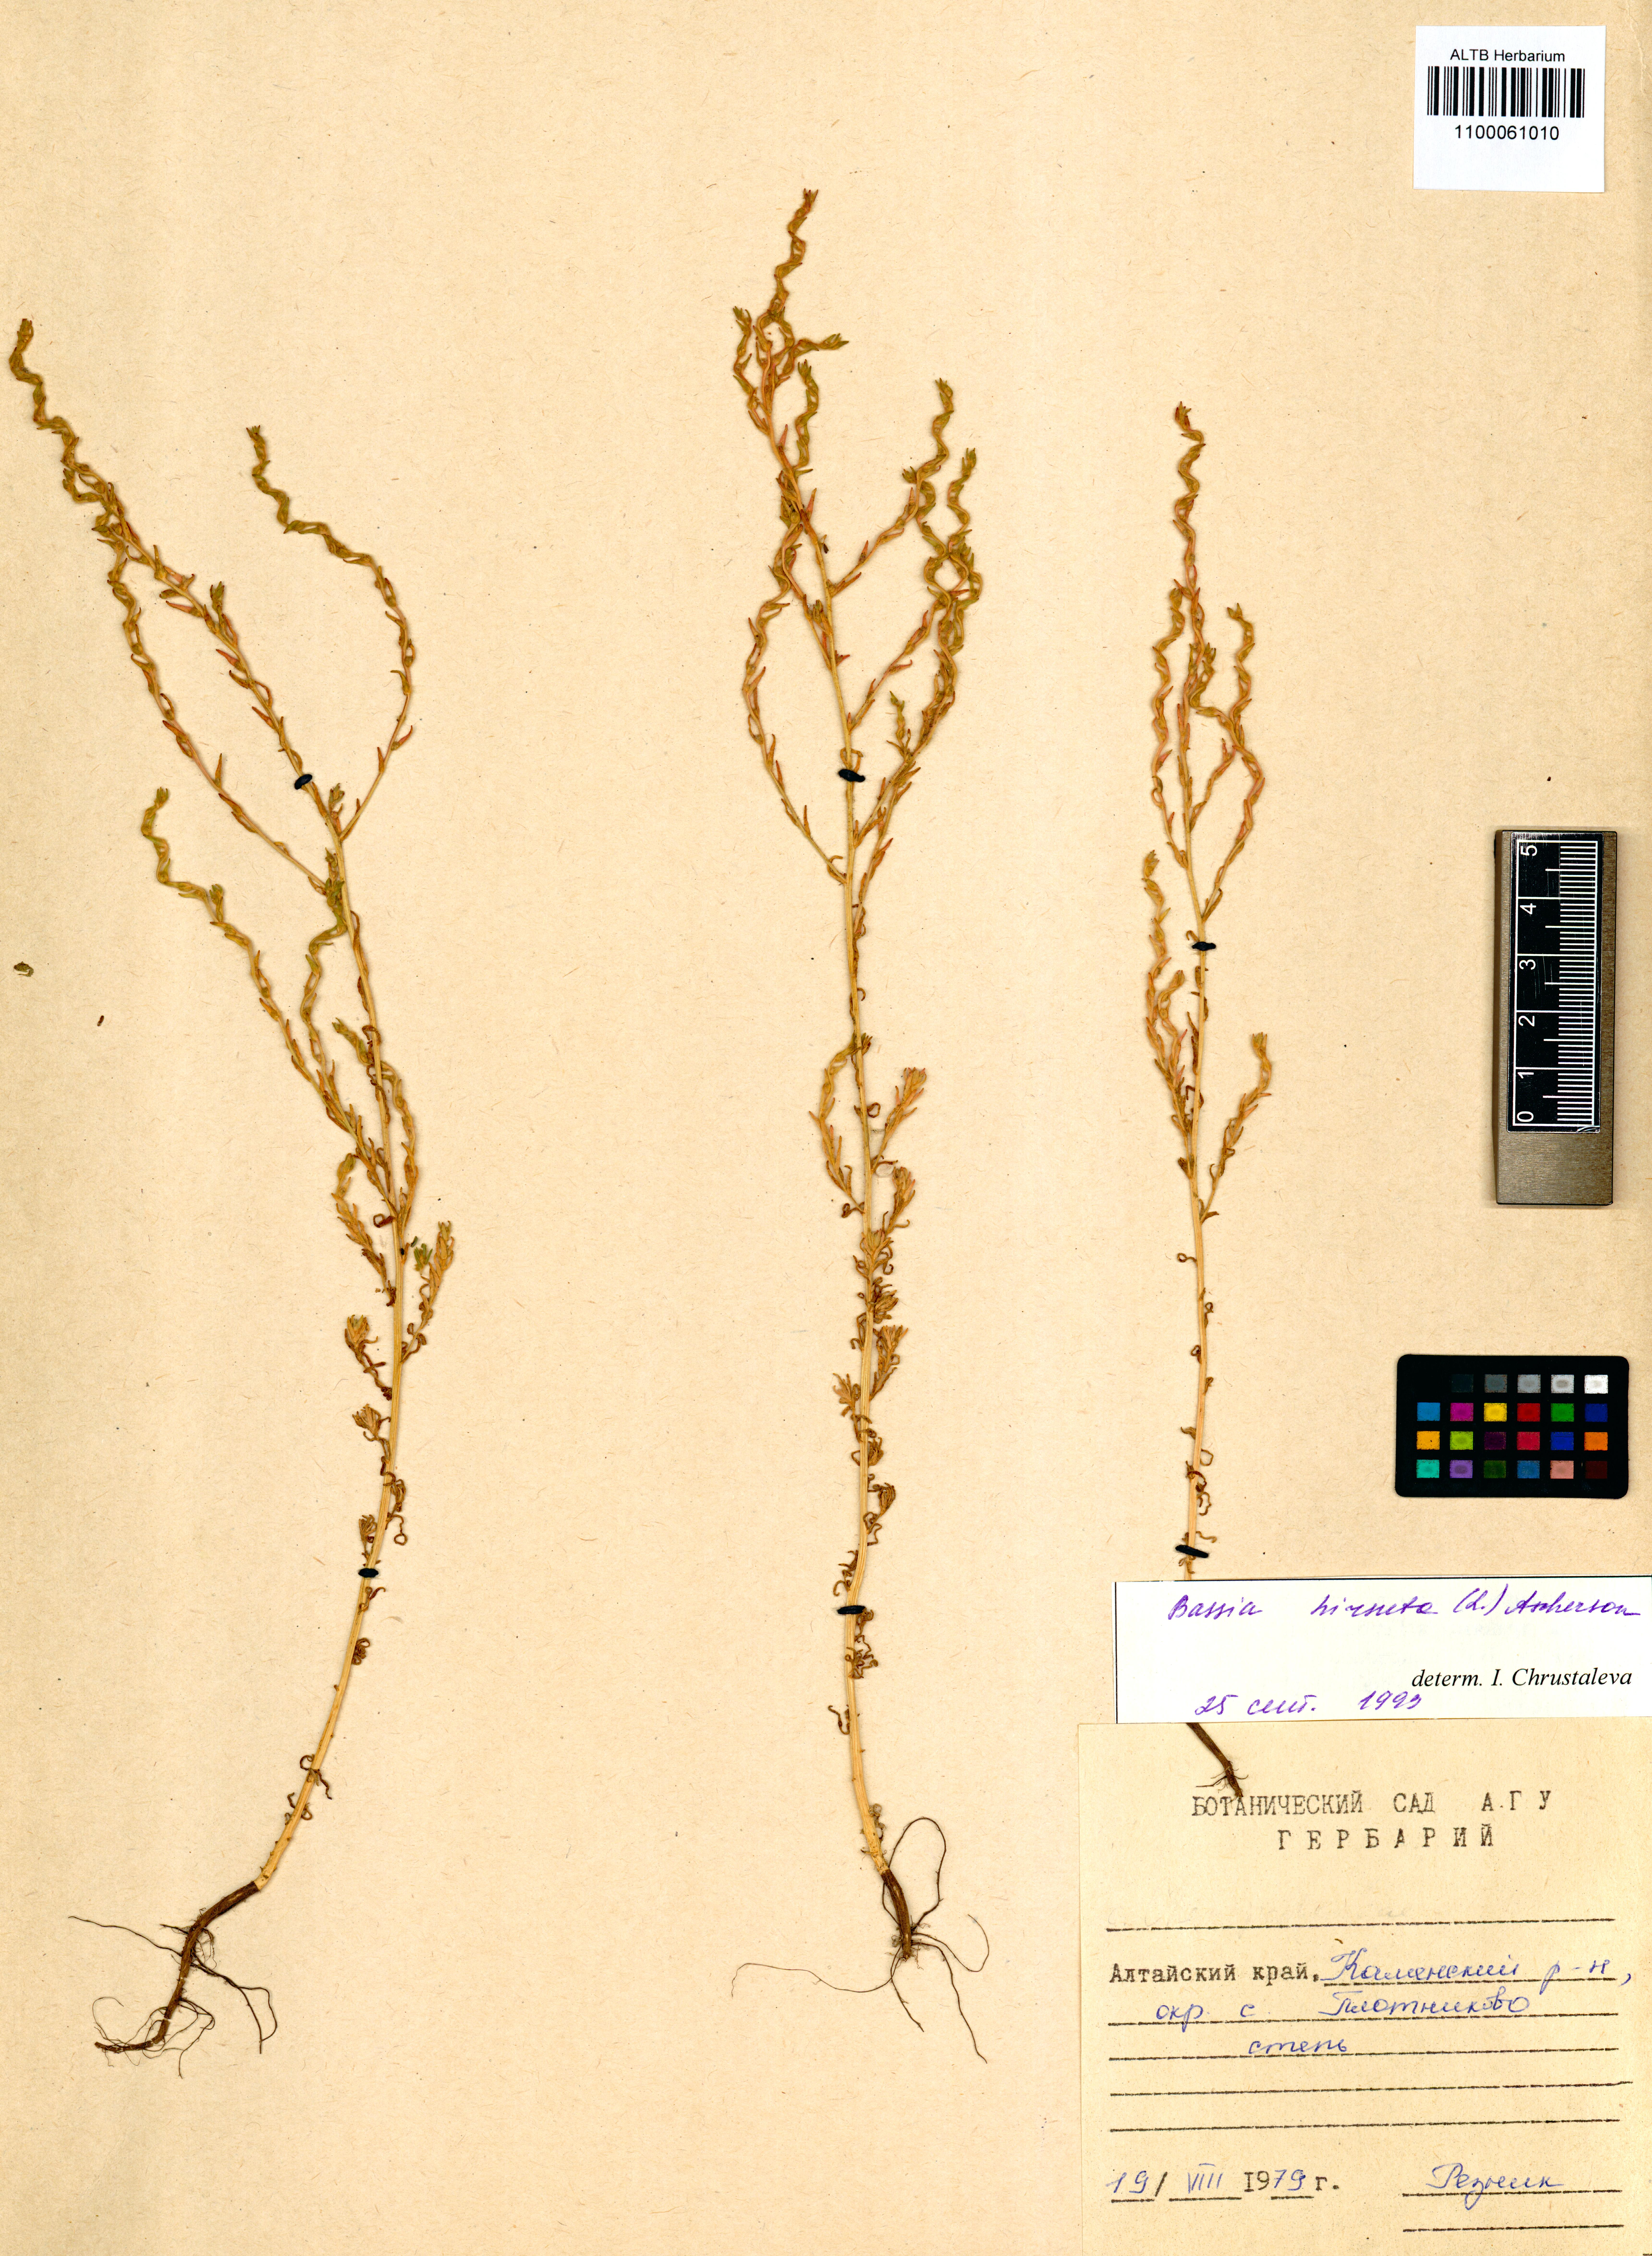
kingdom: Plantae
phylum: Tracheophyta
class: Magnoliopsida
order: Caryophyllales
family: Amaranthaceae
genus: Spirobassia
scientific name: Spirobassia hirsuta
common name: Hairy smotherweed
